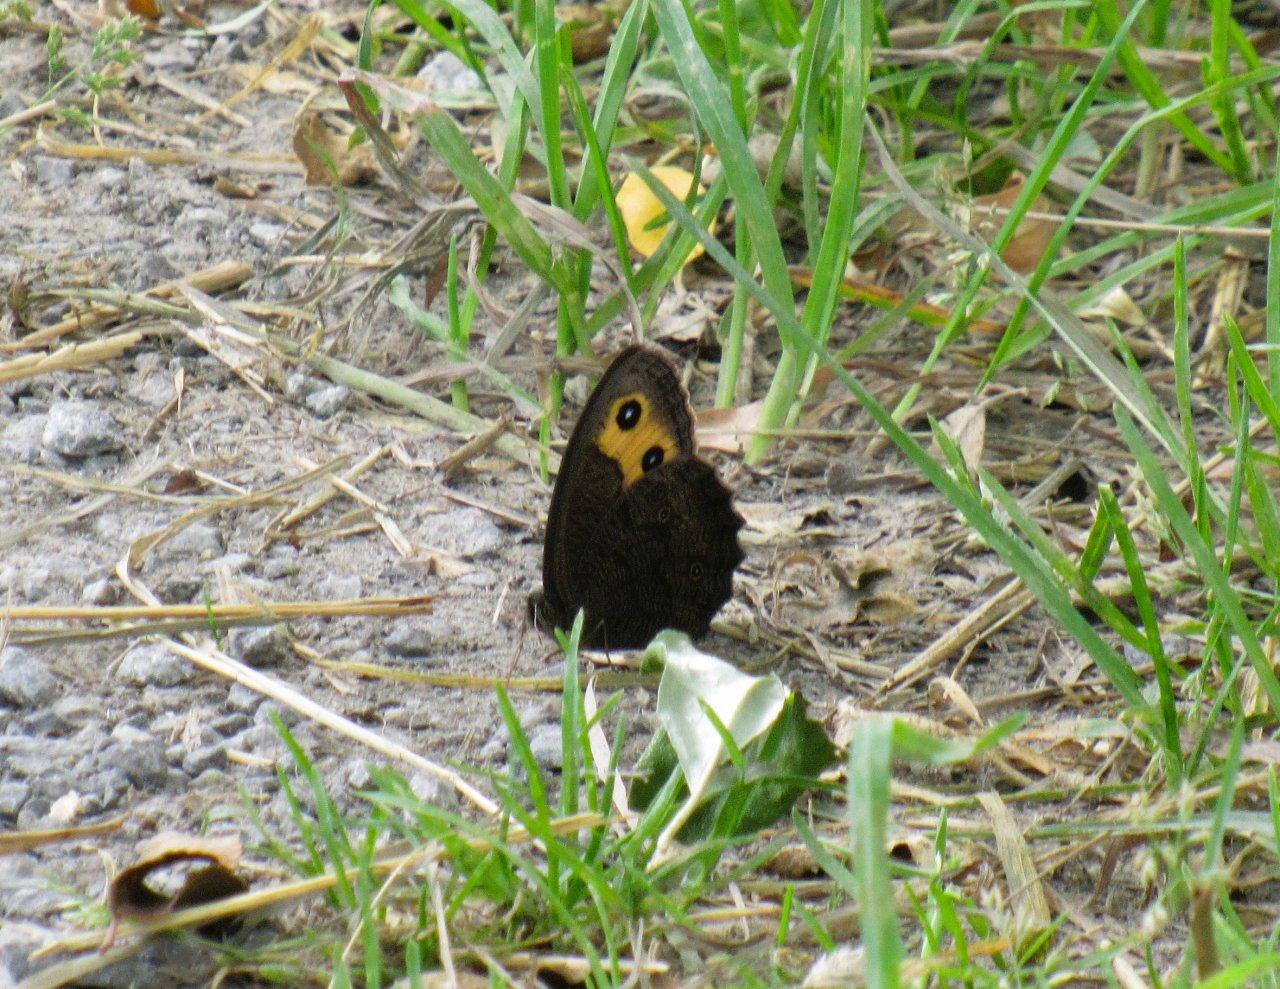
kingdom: Animalia
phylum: Arthropoda
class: Insecta
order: Lepidoptera
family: Nymphalidae
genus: Cercyonis
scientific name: Cercyonis pegala
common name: Common Wood-Nymph
